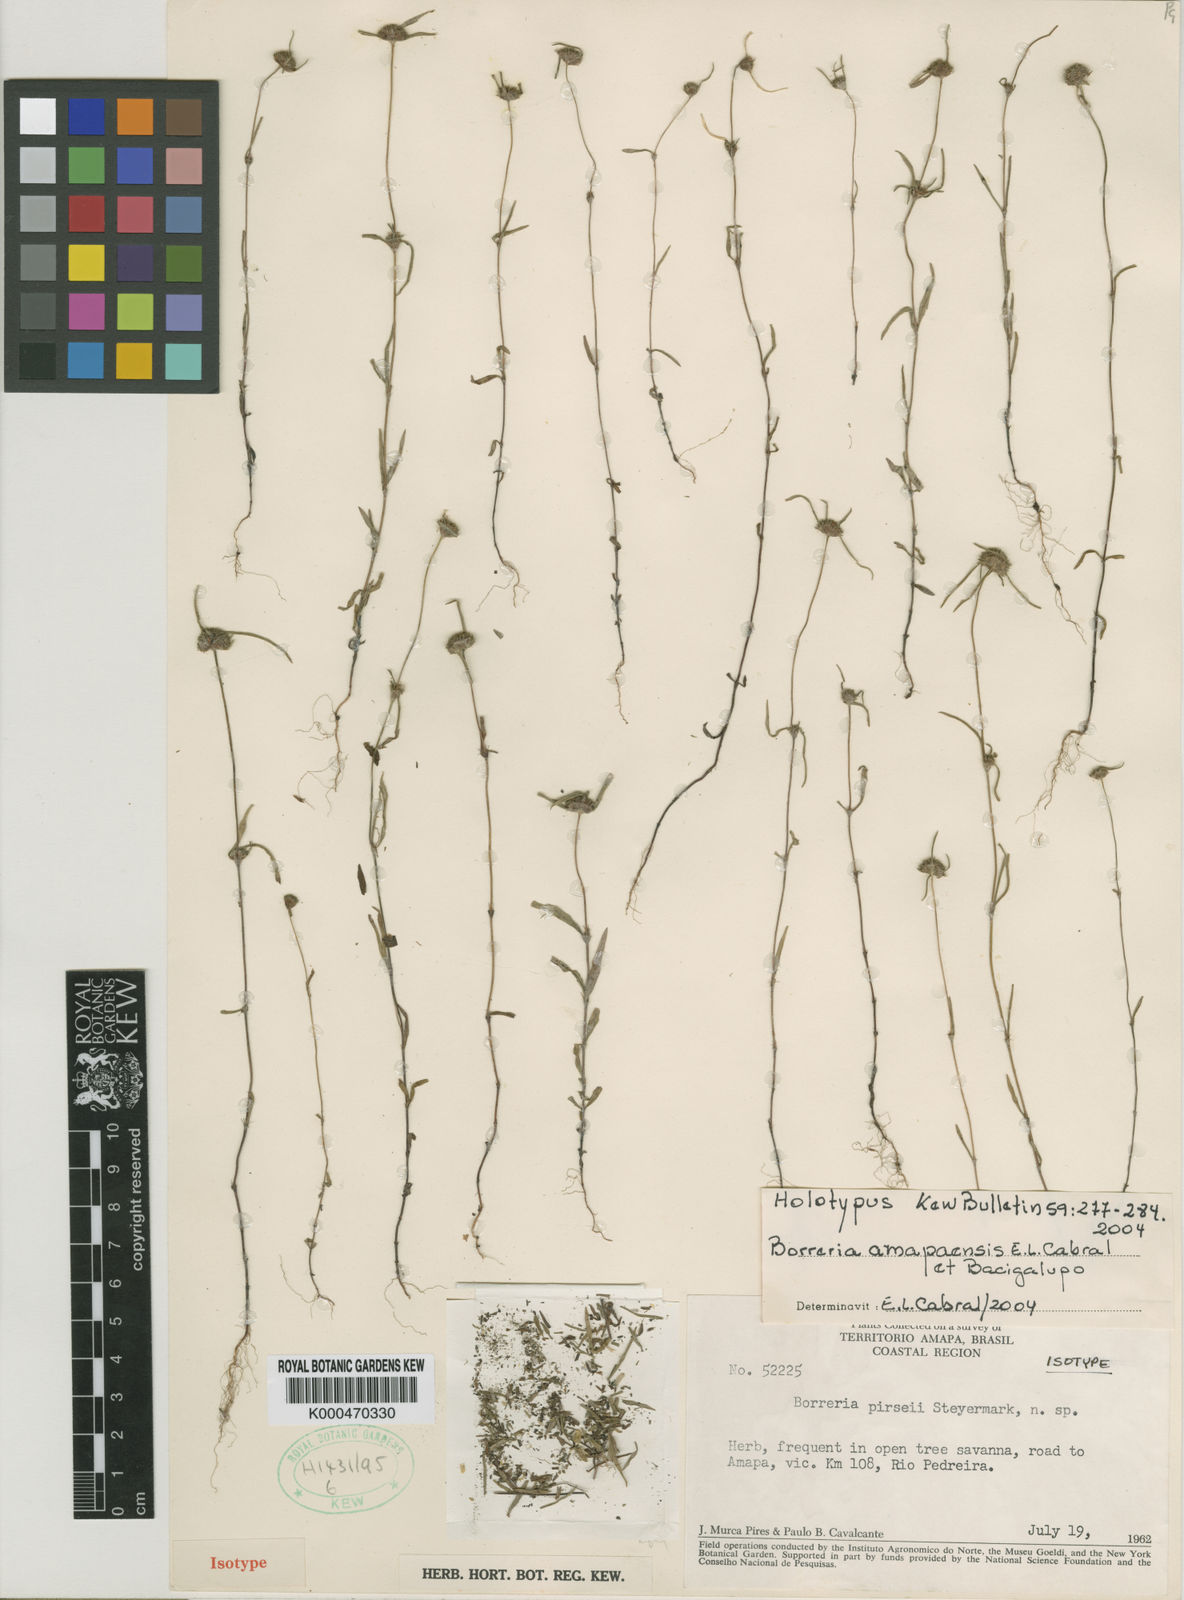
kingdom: Plantae
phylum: Tracheophyta
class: Magnoliopsida
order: Gentianales
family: Rubiaceae
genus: Spermacoce
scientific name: Spermacoce amapaensis
